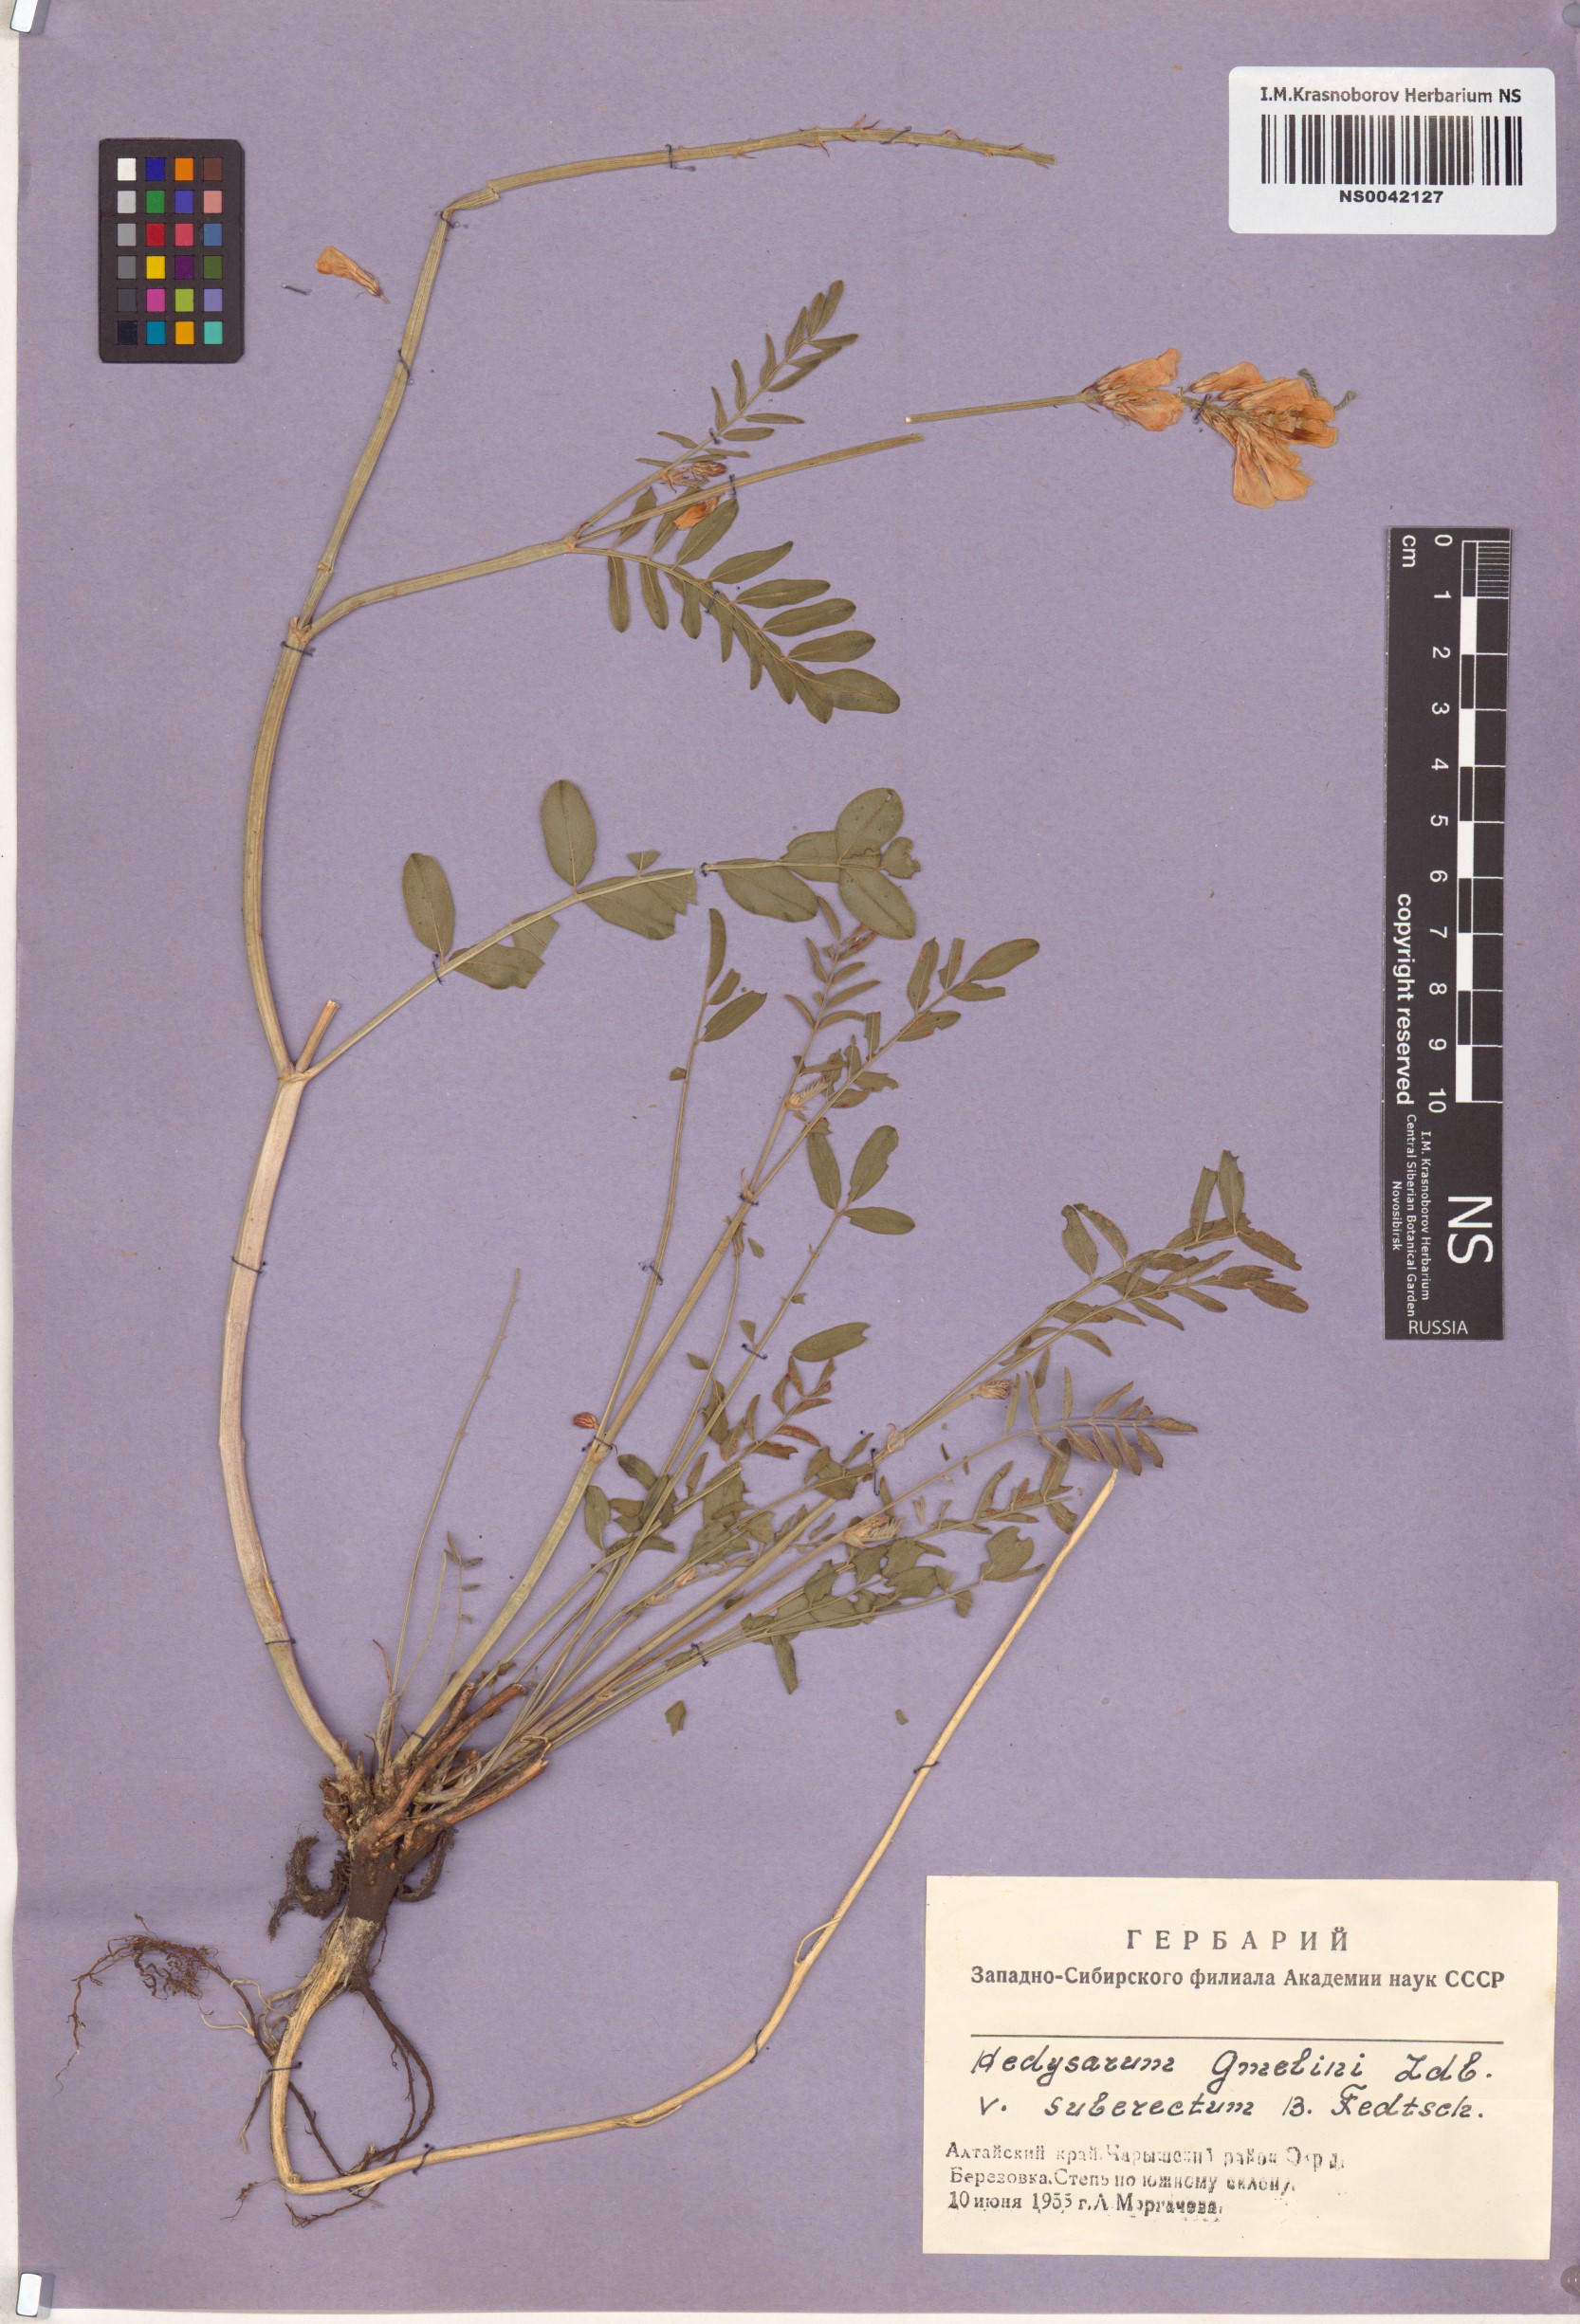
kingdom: Plantae
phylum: Tracheophyta
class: Magnoliopsida
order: Fabales
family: Fabaceae
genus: Hedysarum
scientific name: Hedysarum gmelinii
